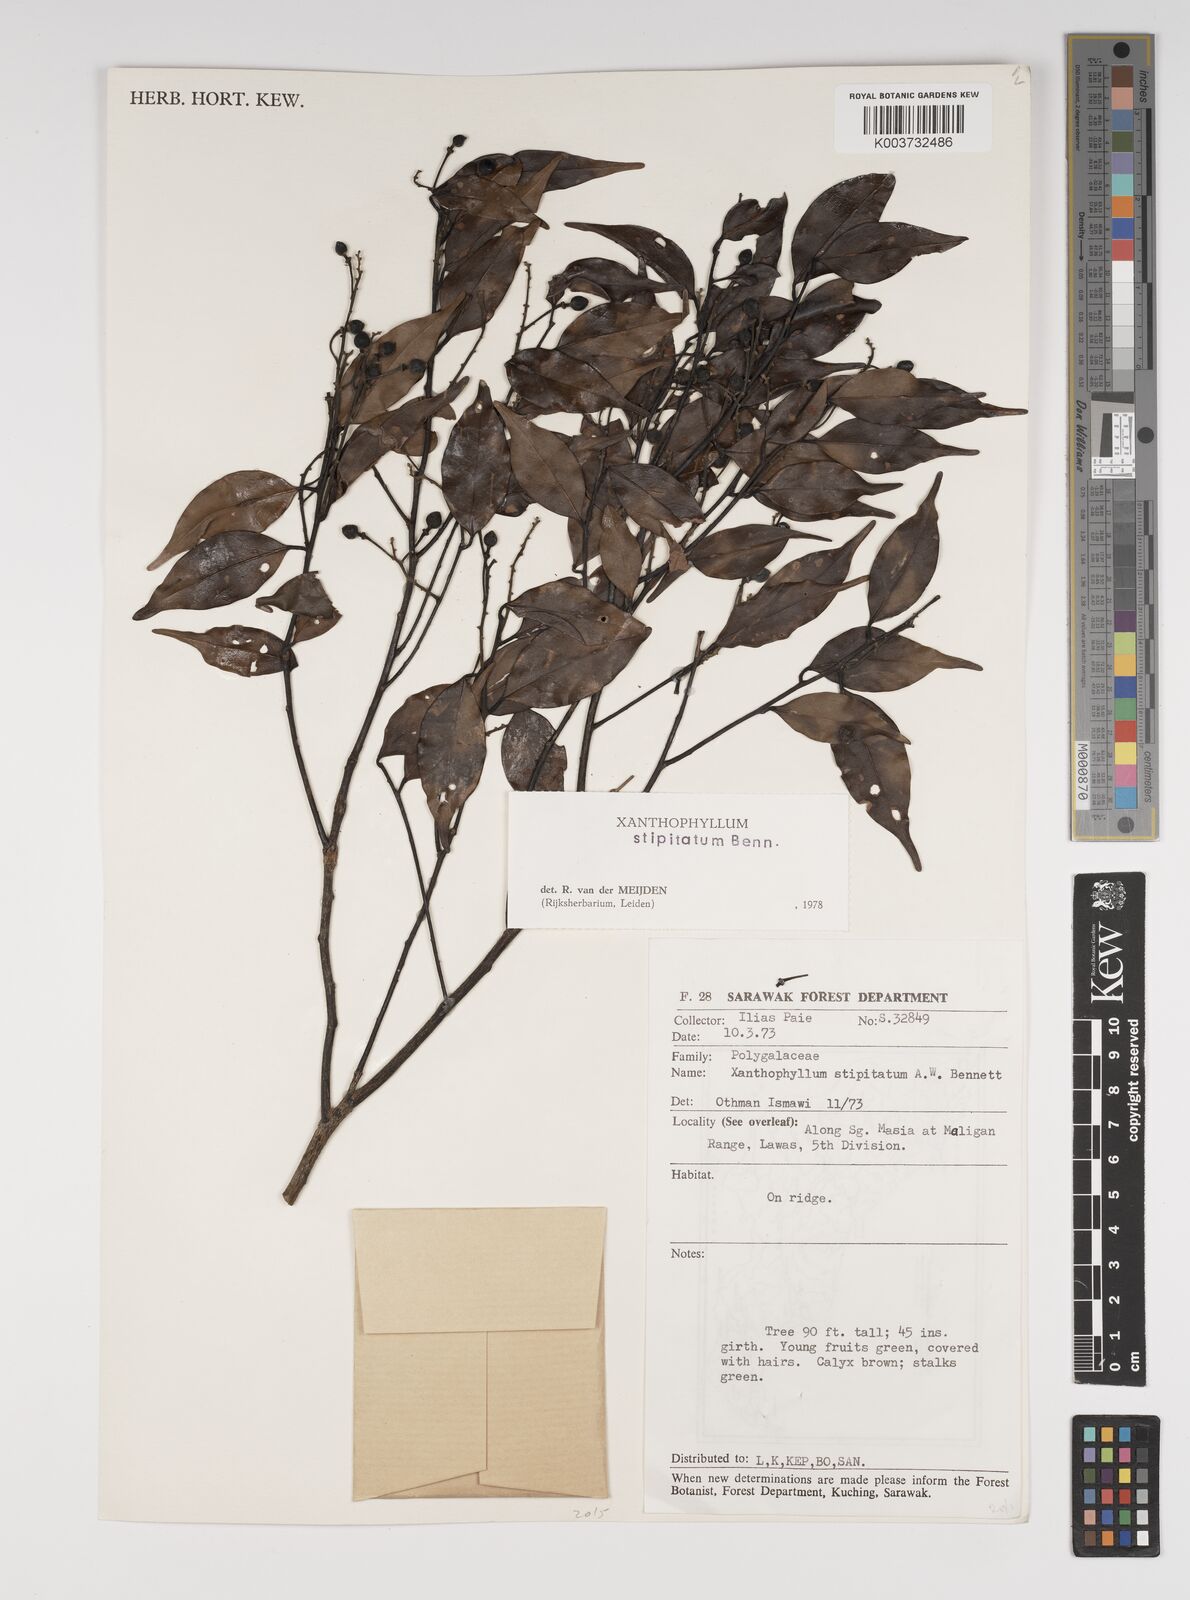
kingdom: Plantae
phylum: Tracheophyta
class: Magnoliopsida
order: Fabales
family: Polygalaceae
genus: Xanthophyllum
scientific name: Xanthophyllum stipitatum
